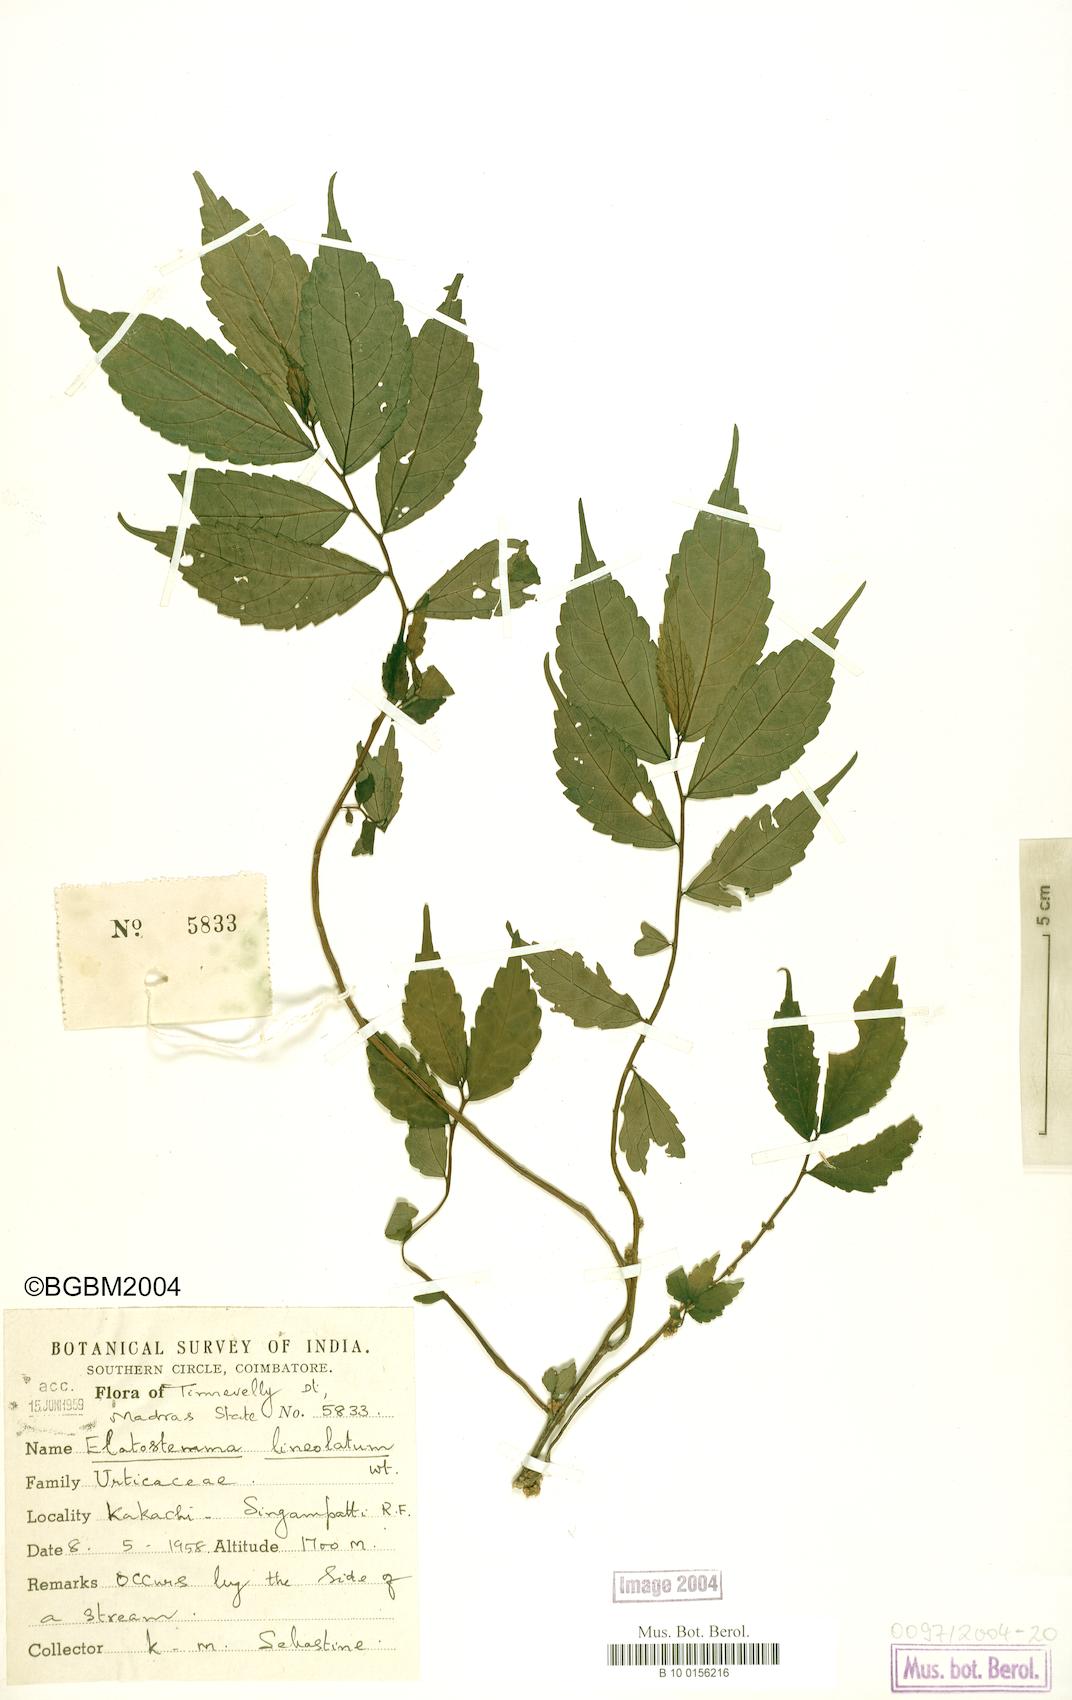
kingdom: Plantae
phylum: Tracheophyta
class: Magnoliopsida
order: Rosales
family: Urticaceae
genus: Elatostema
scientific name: Elatostema lineolatum
